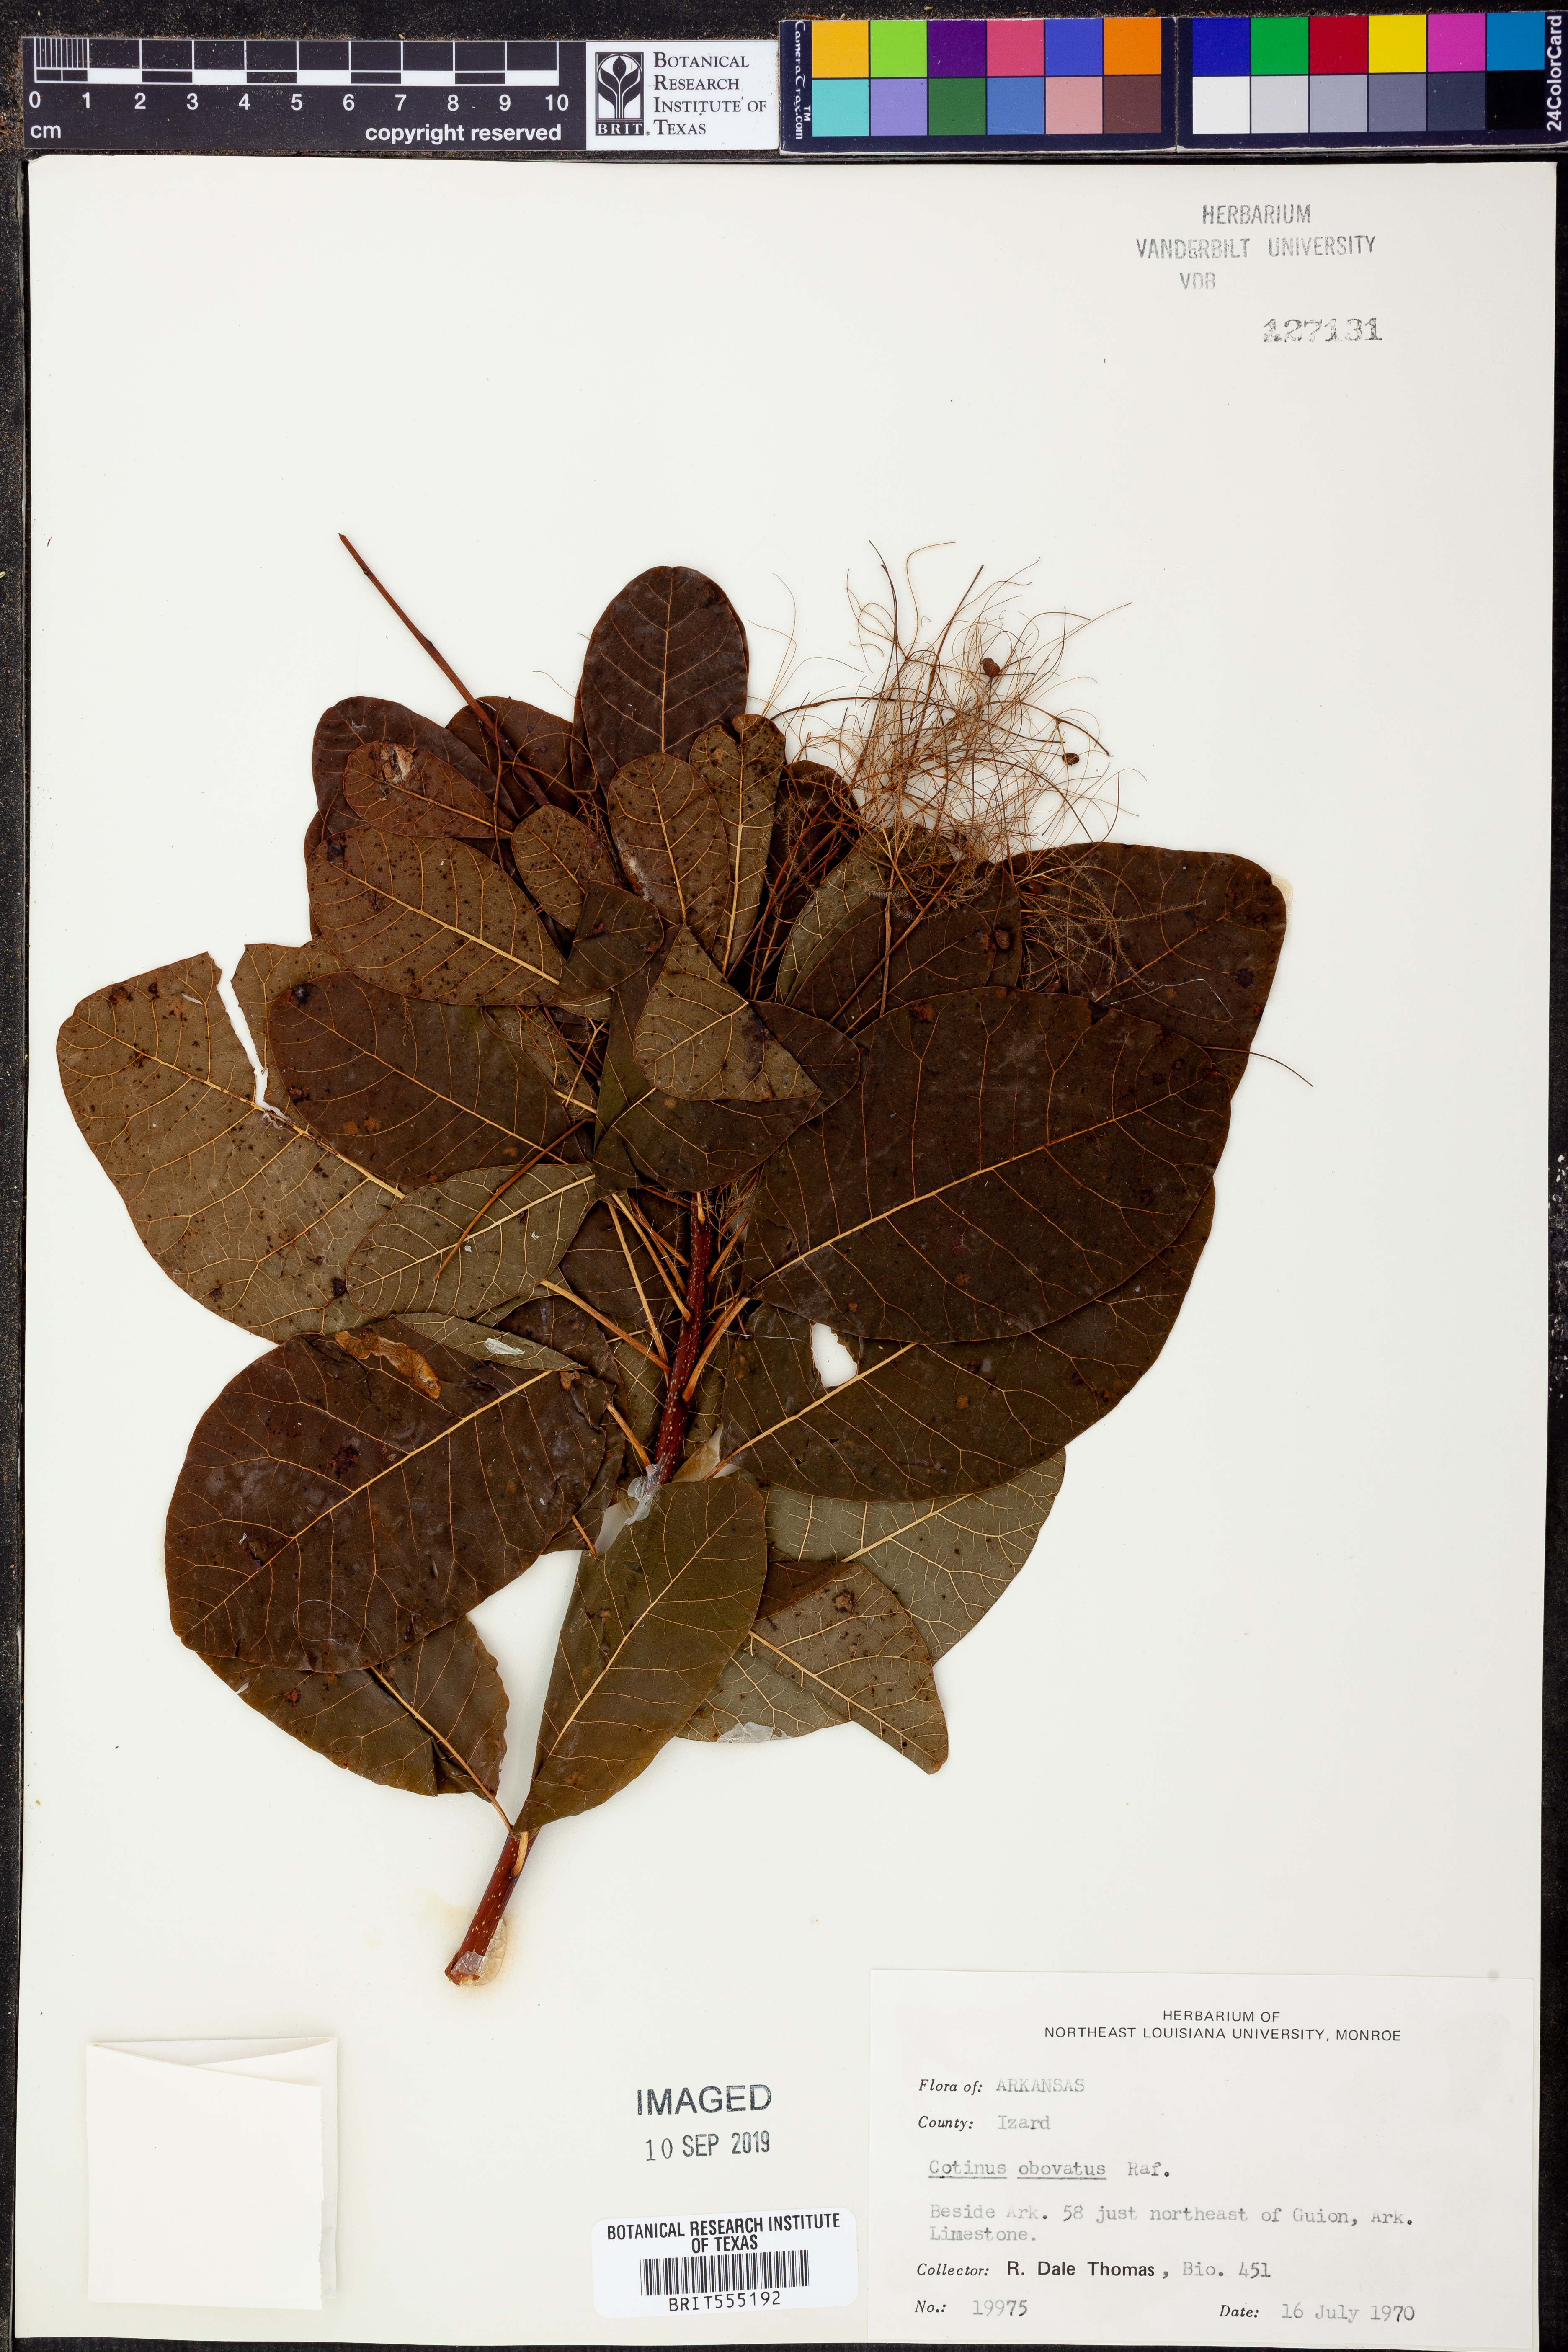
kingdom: Plantae
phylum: Tracheophyta
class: Magnoliopsida
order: Sapindales
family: Anacardiaceae
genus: Cotinus
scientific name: Cotinus obovatus
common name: Chittamwood
